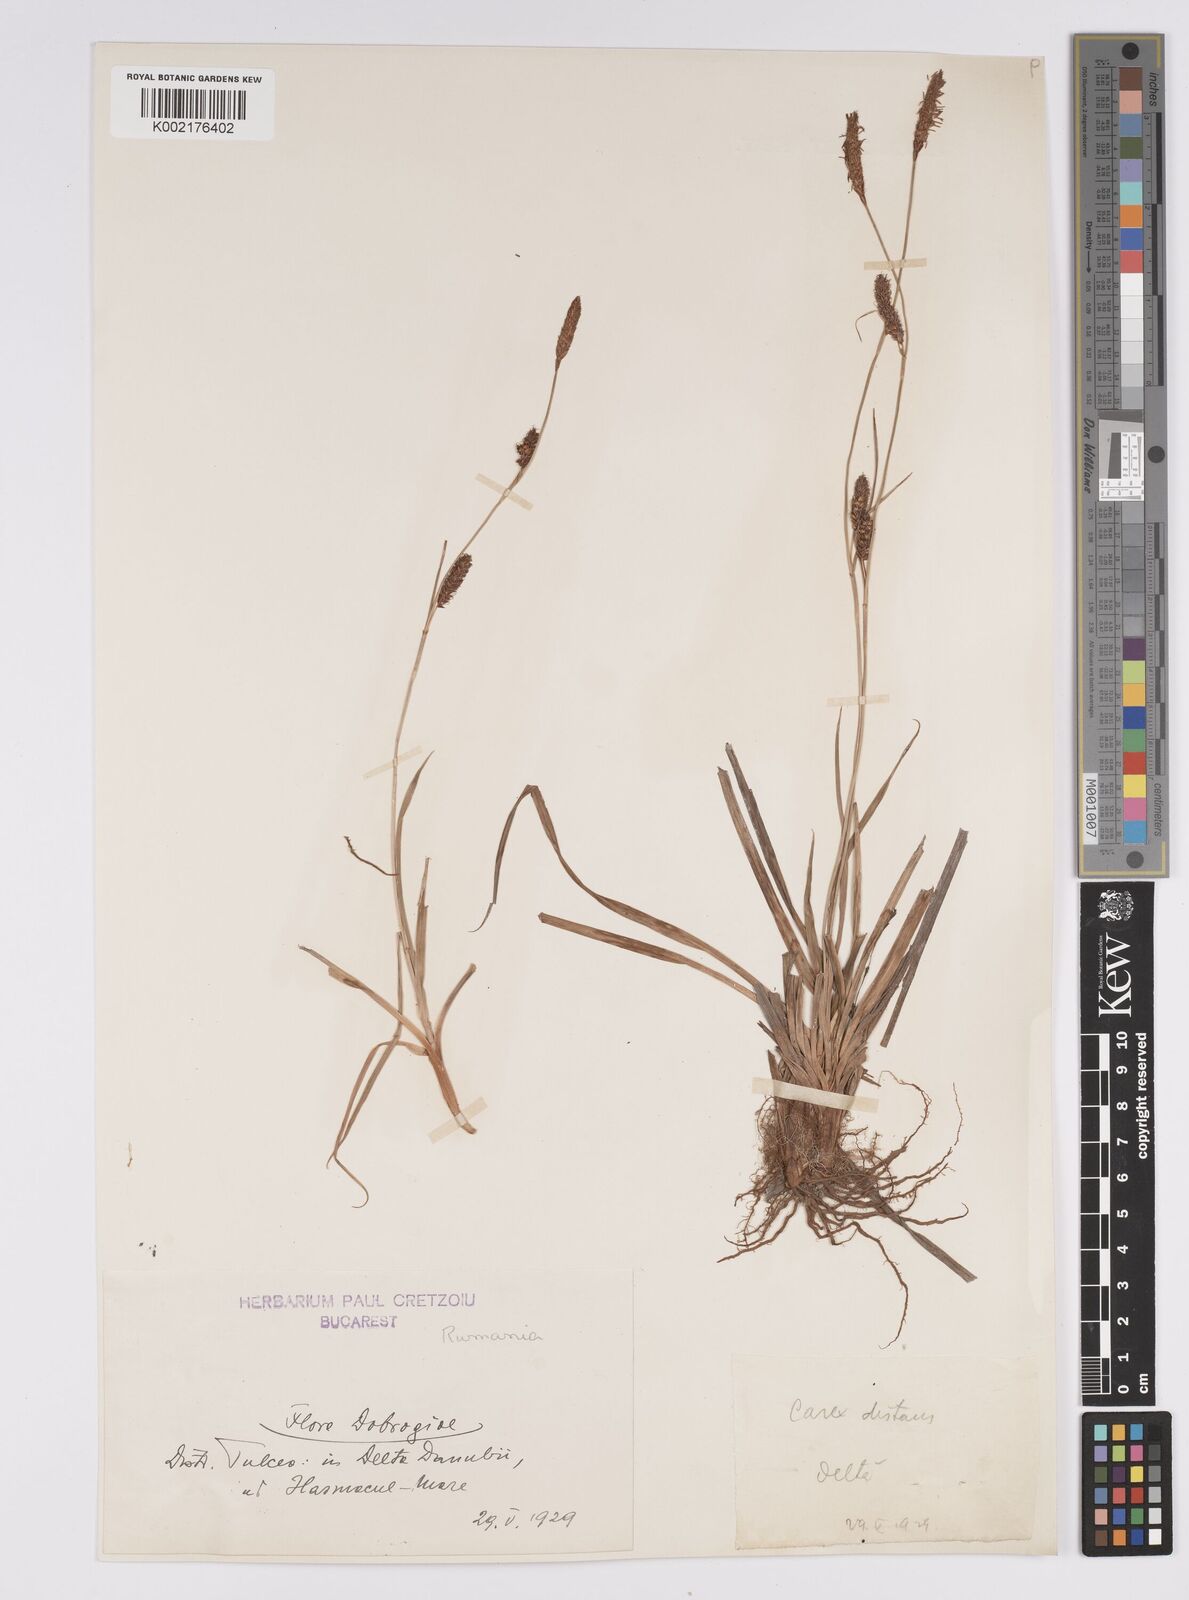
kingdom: Plantae
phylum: Tracheophyta
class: Liliopsida
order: Poales
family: Cyperaceae
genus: Carex
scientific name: Carex distans
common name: Distant sedge
